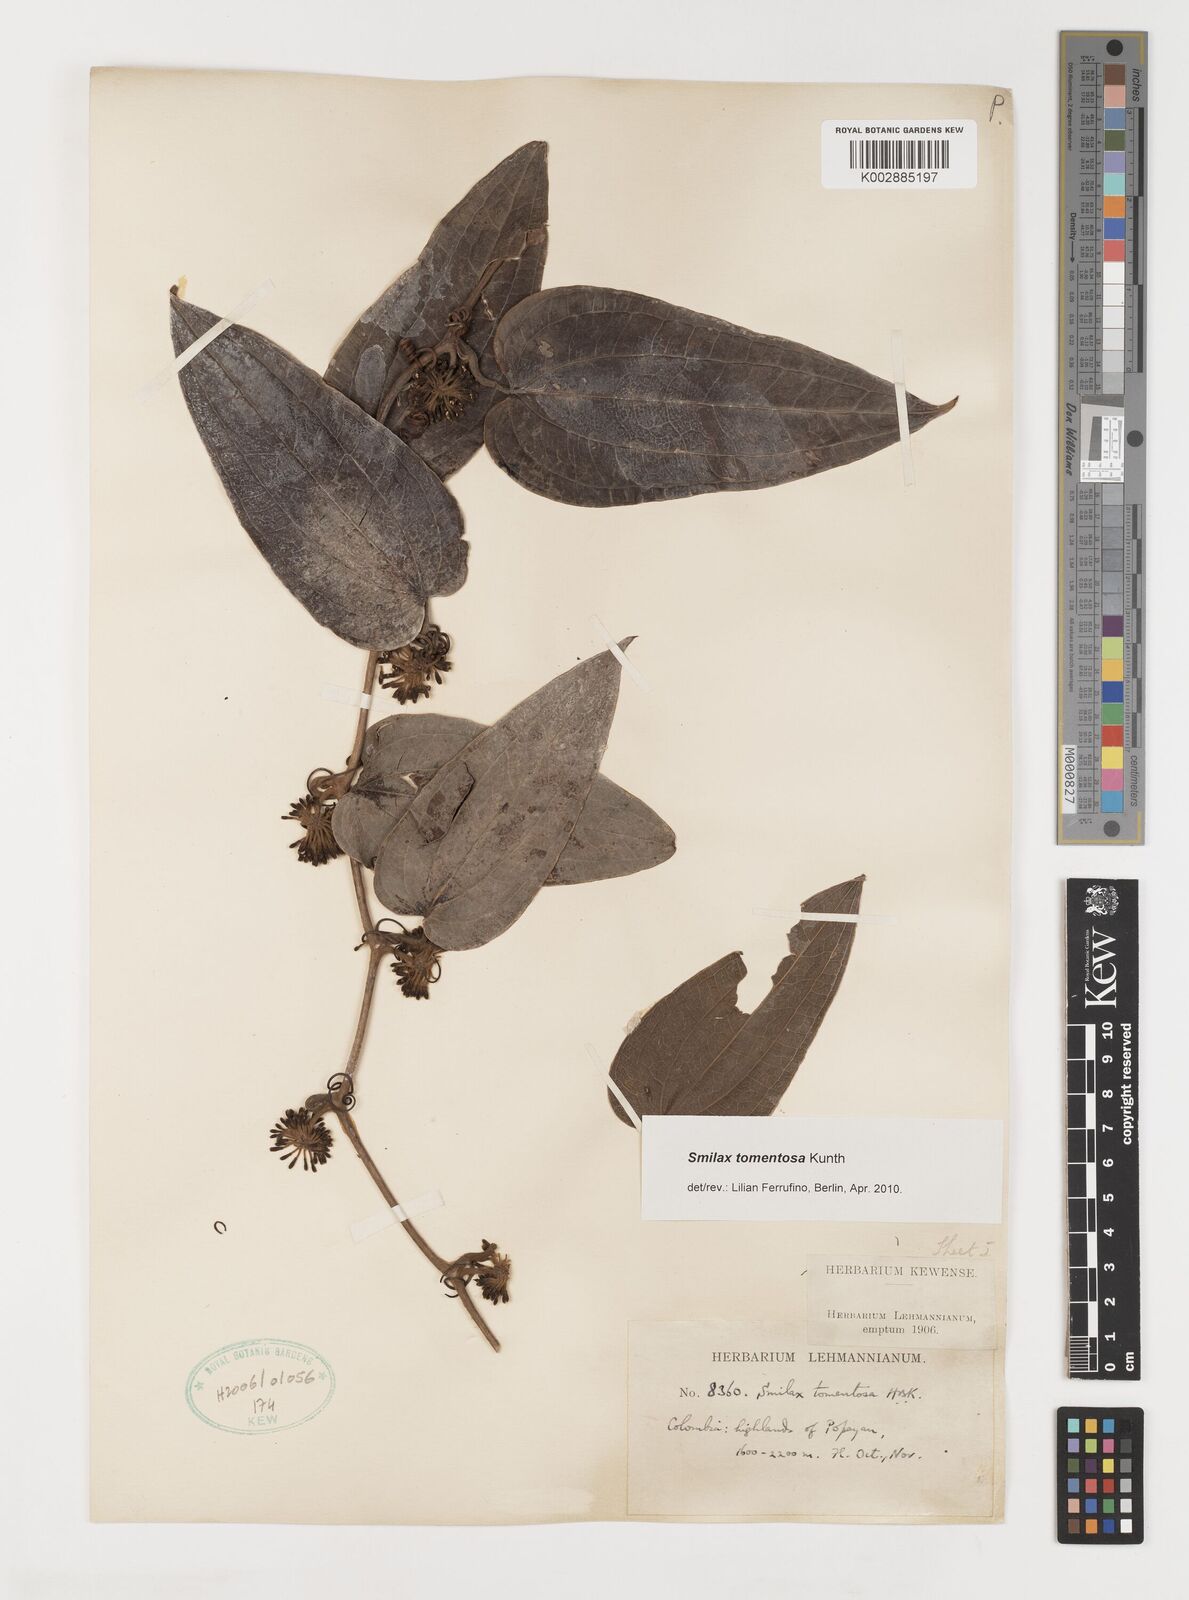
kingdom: Plantae
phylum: Tracheophyta
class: Liliopsida
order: Liliales
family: Smilacaceae
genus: Smilax
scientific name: Smilax tomentosa
